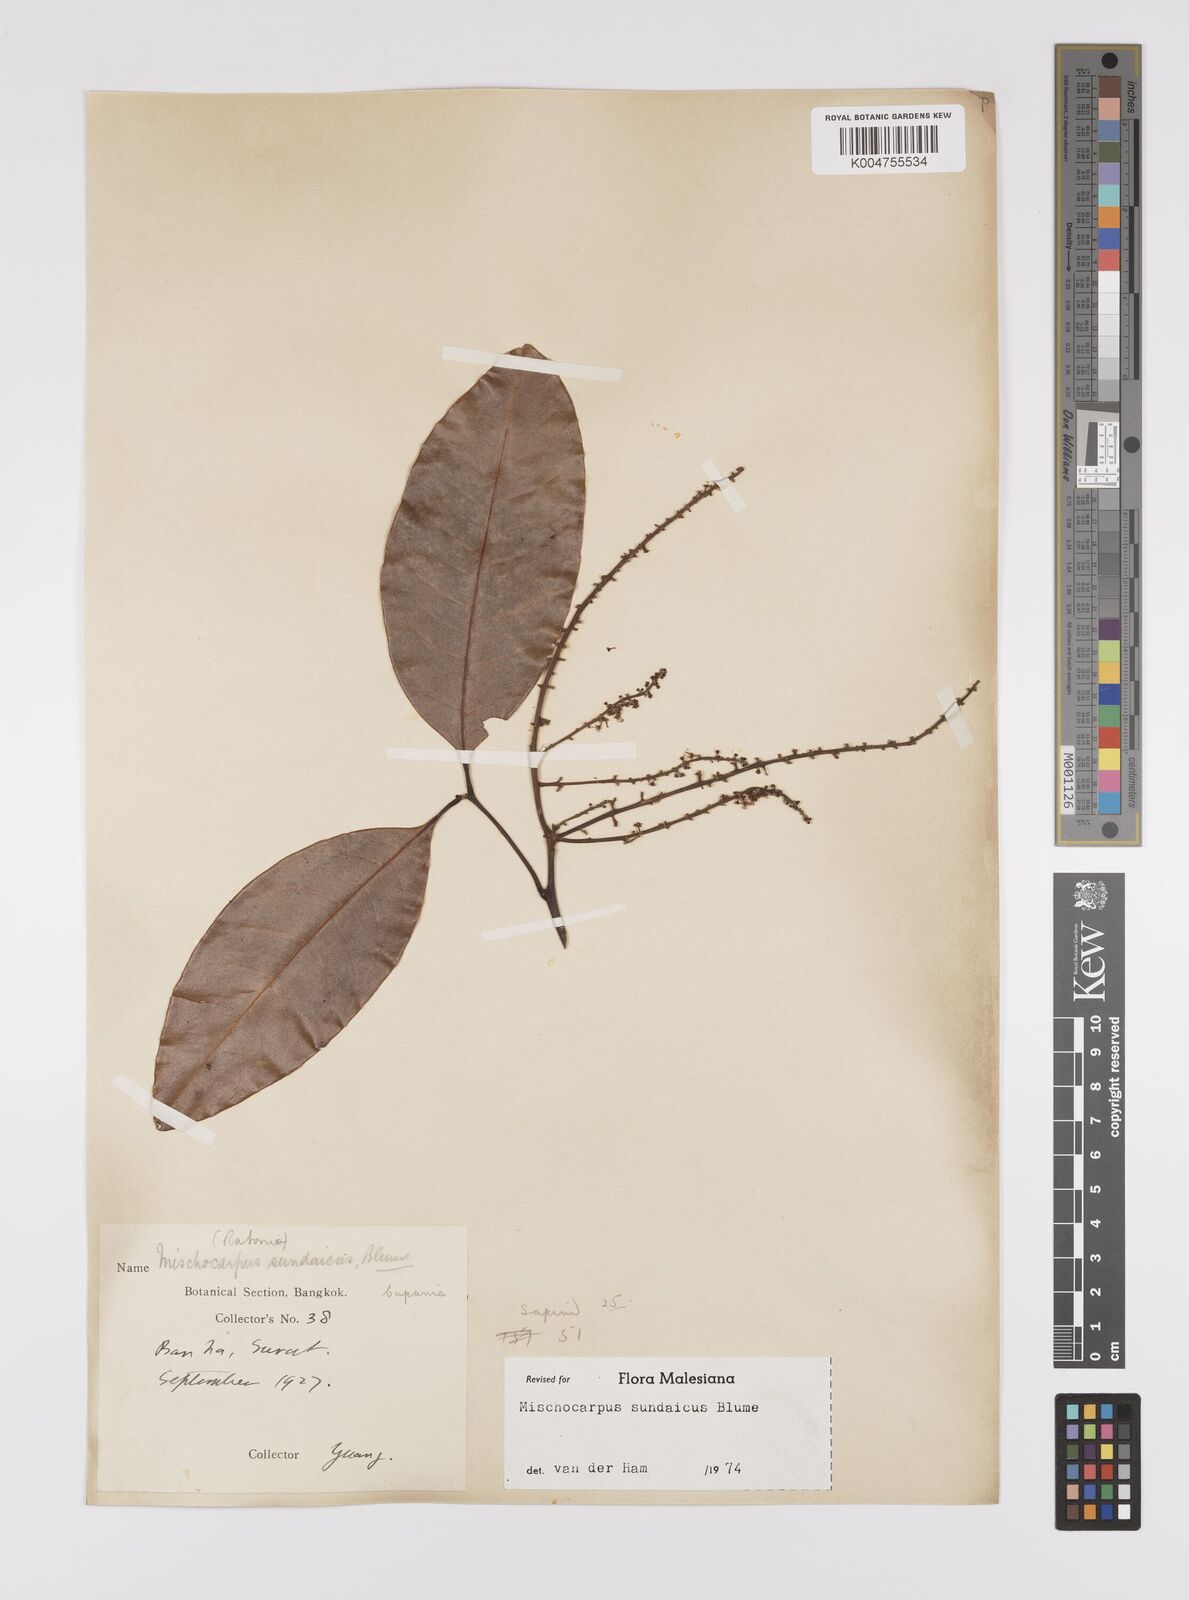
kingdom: Plantae
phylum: Tracheophyta
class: Magnoliopsida
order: Sapindales
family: Sapindaceae
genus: Mischocarpus
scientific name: Mischocarpus sundaicus
